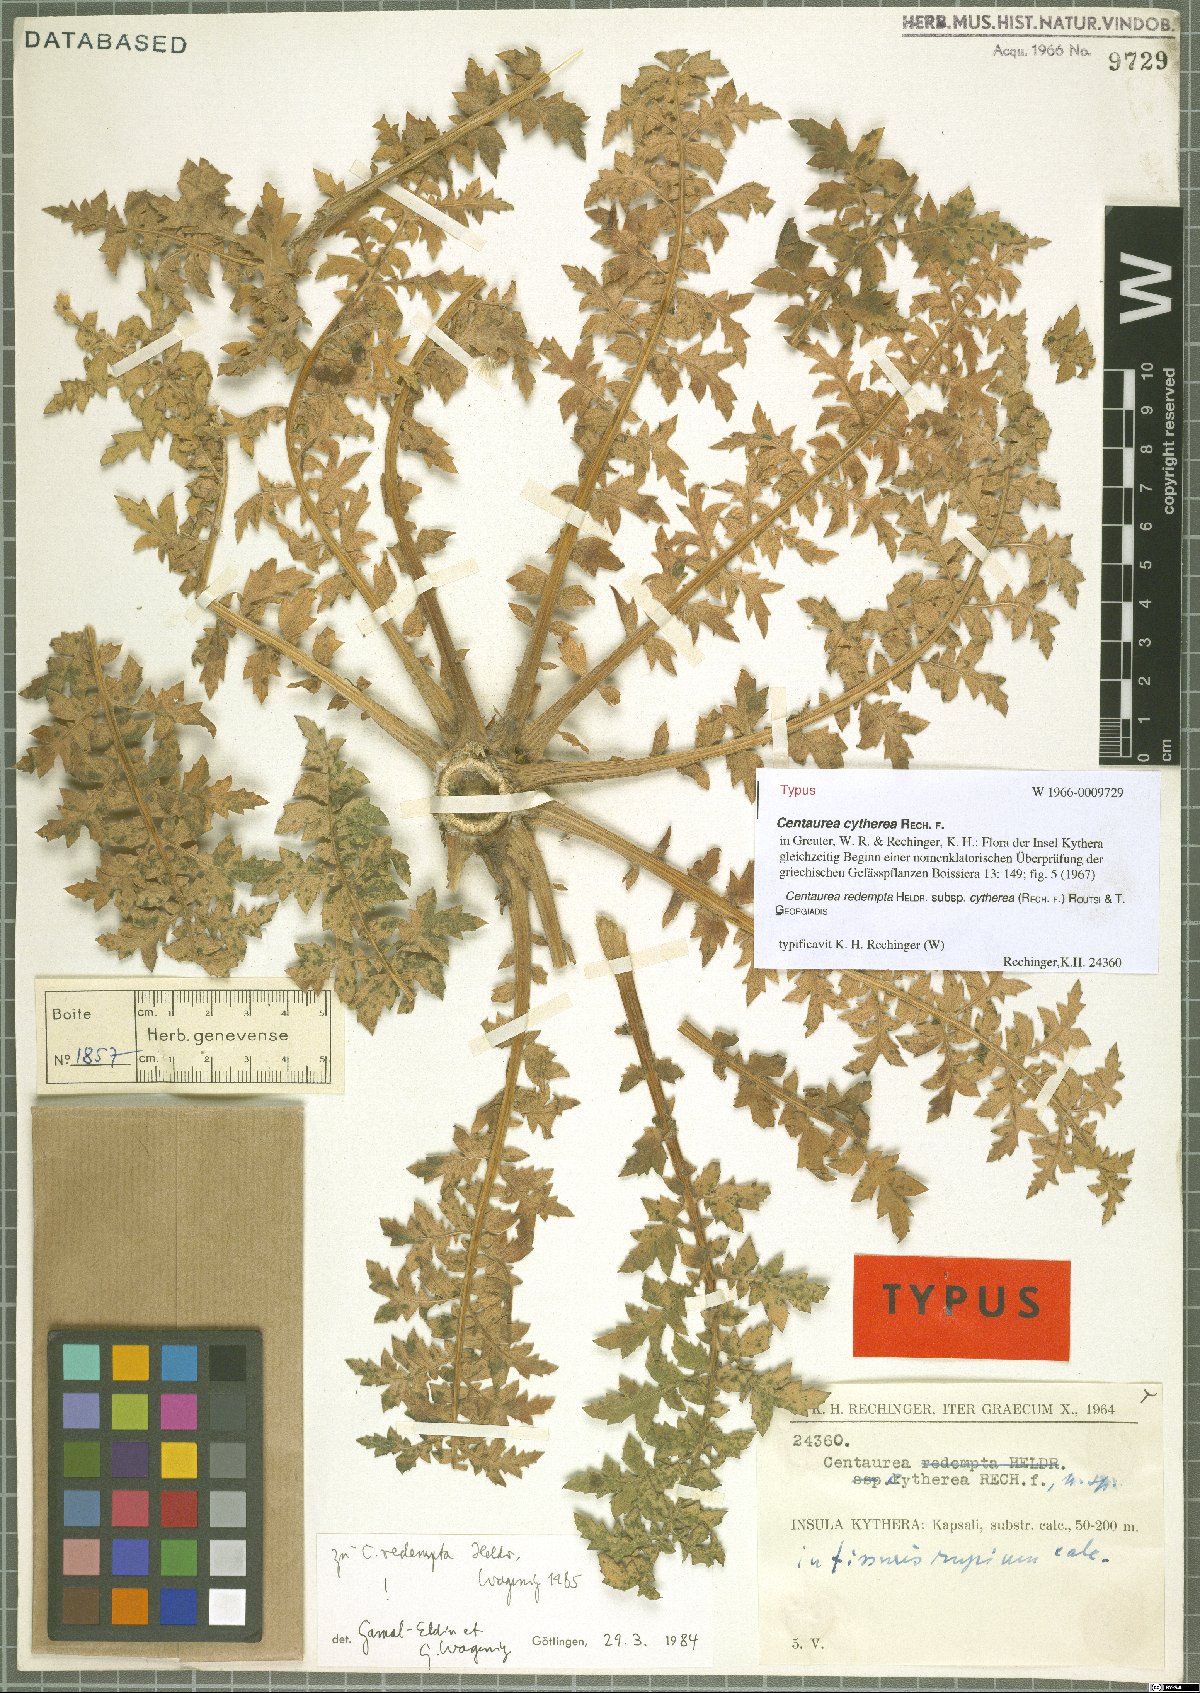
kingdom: Plantae
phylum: Tracheophyta
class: Magnoliopsida
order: Asterales
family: Asteraceae
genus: Centaurea
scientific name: Centaurea redempta
